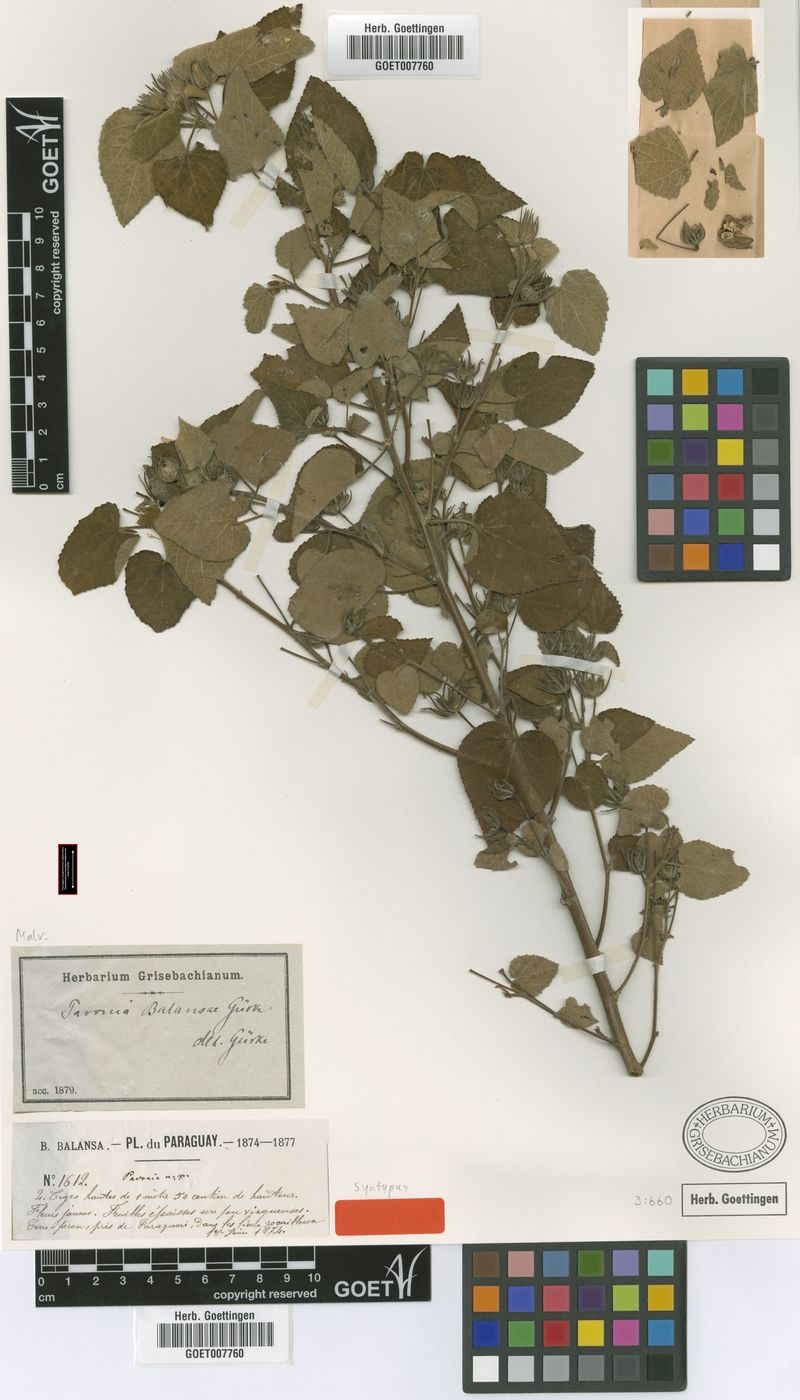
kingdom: Plantae
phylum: Tracheophyta
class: Magnoliopsida
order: Malvales
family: Malvaceae
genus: Pavonia
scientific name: Pavonia balansae
